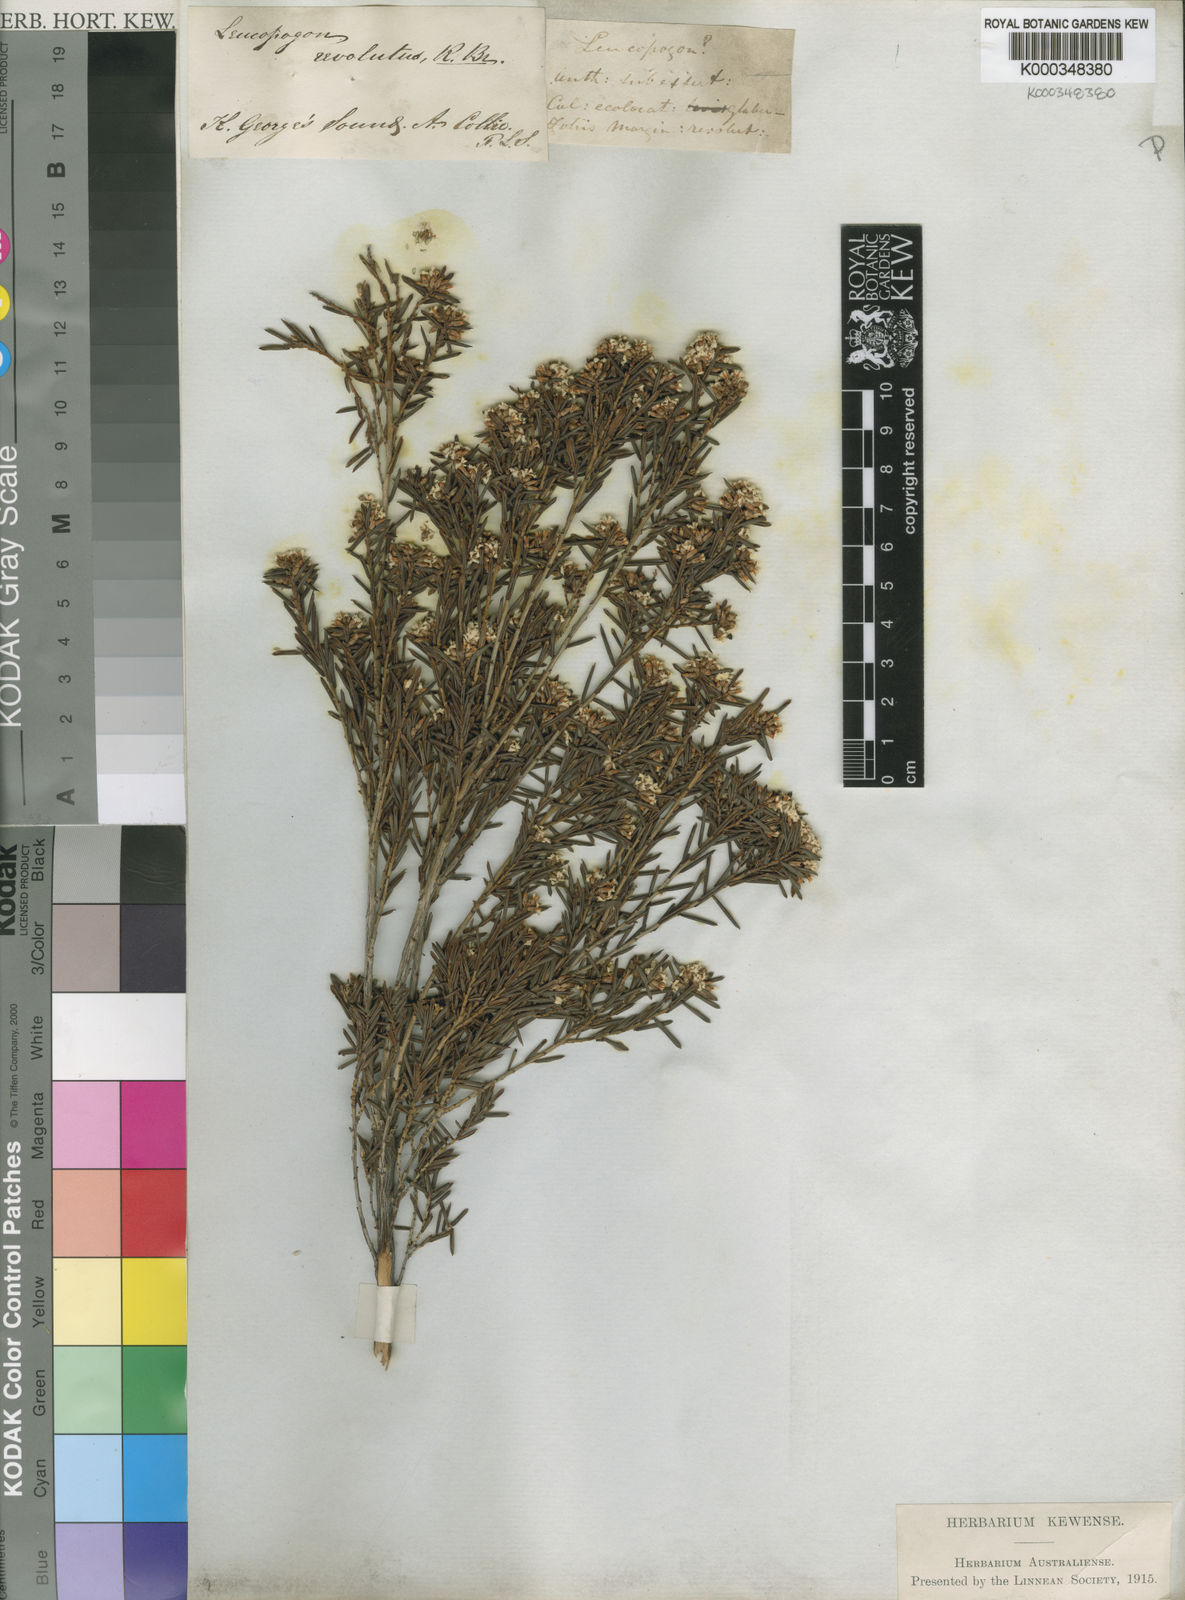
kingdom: Plantae
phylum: Tracheophyta
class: Magnoliopsida
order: Ericales
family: Ericaceae
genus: Leucopogon
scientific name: Leucopogon obovatus
